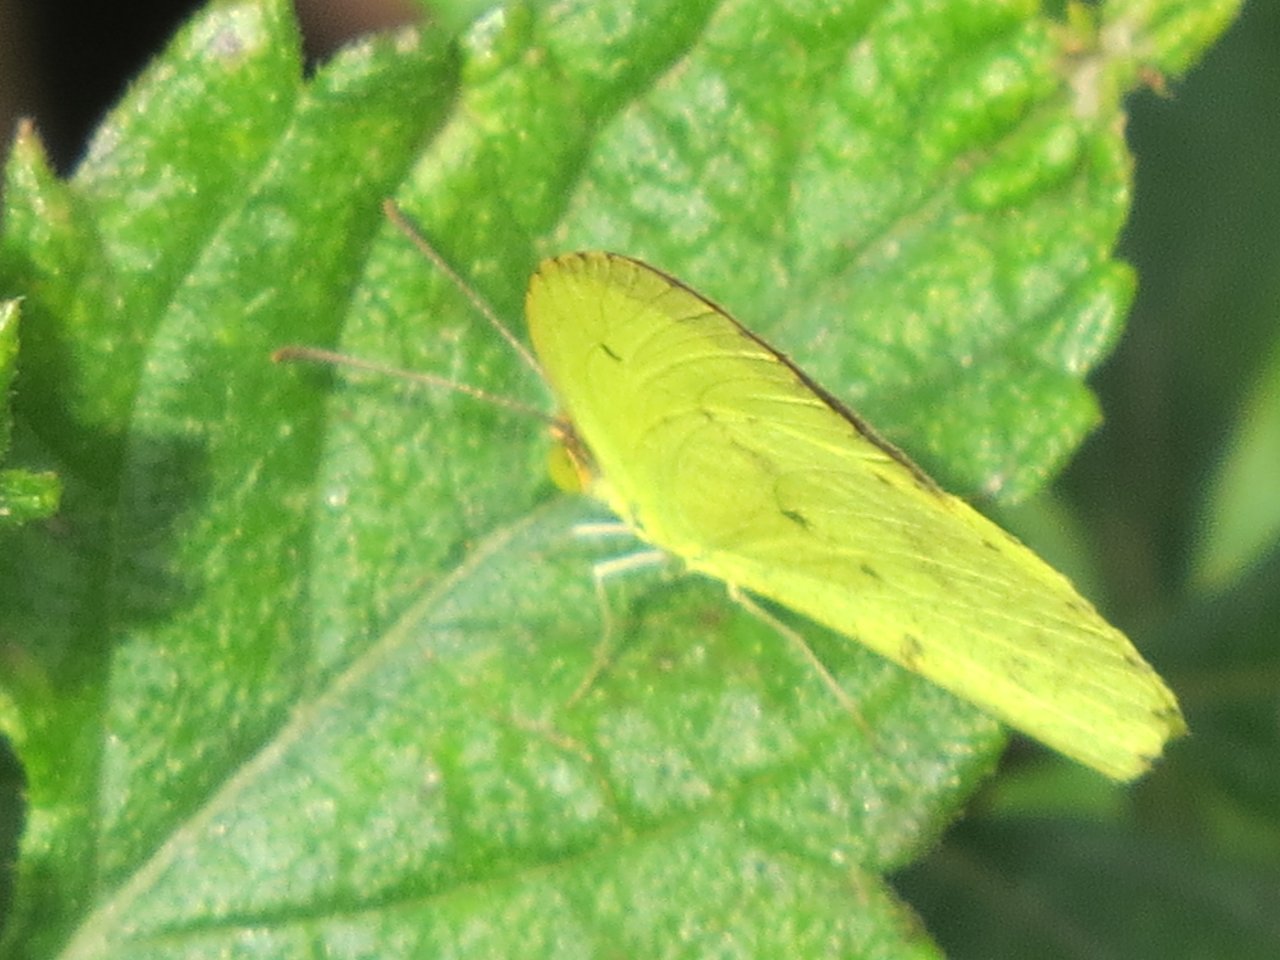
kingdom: Animalia
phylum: Arthropoda
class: Insecta
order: Lepidoptera
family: Pieridae
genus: Pyrisitia
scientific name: Pyrisitia nise
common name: Mimosa Yellow
